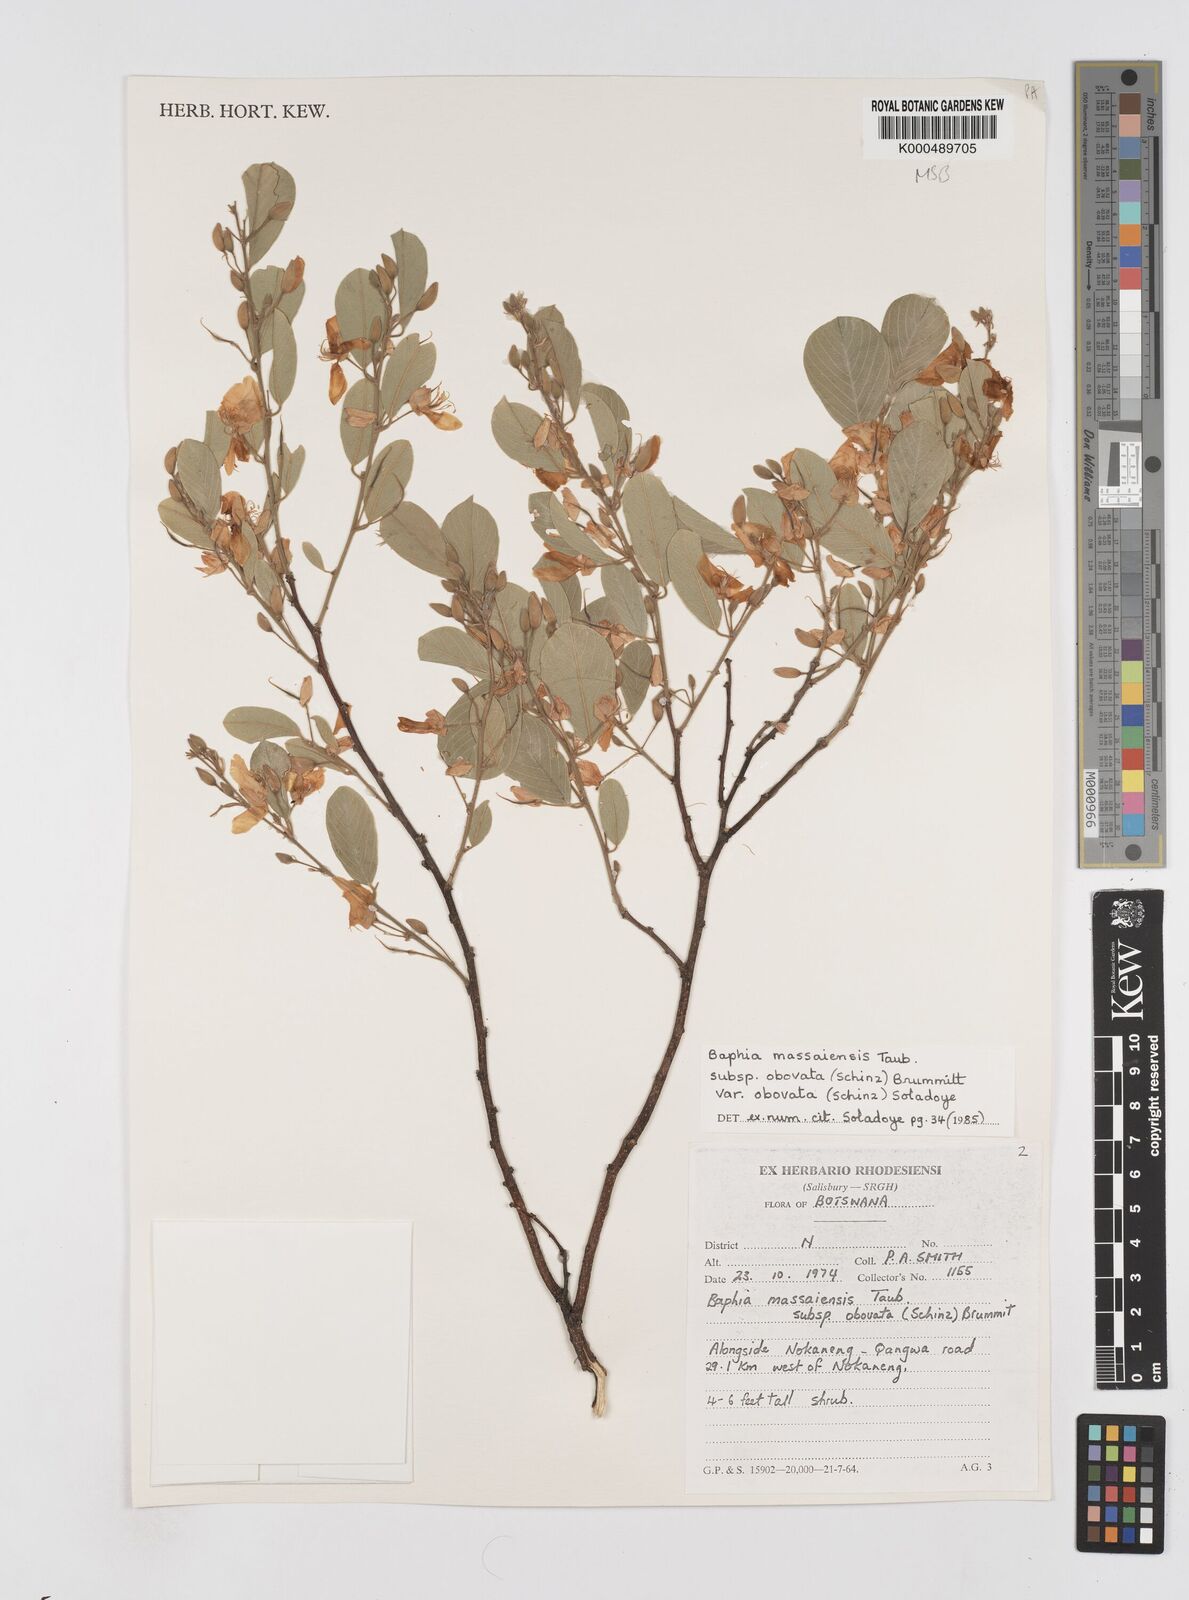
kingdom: Plantae
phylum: Tracheophyta
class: Magnoliopsida
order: Fabales
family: Fabaceae
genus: Baphia
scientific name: Baphia massaiensis
